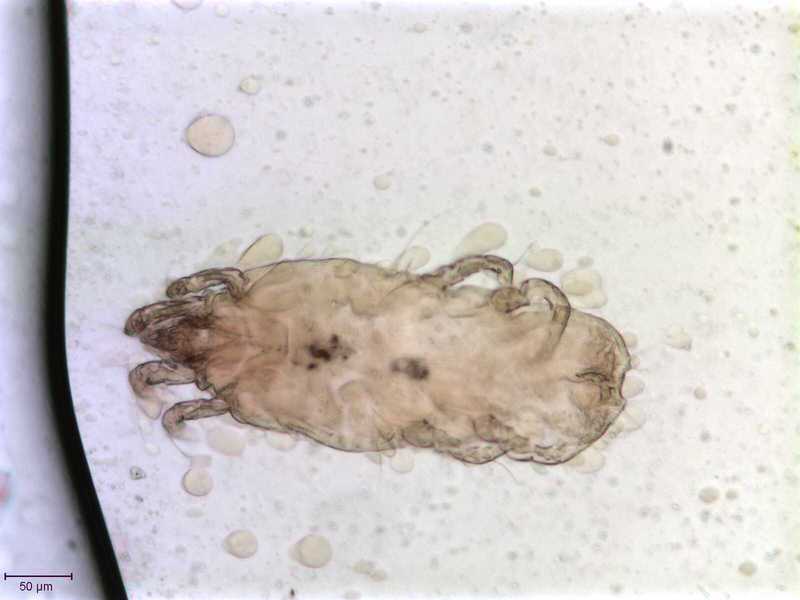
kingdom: Animalia
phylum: Arthropoda
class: Arachnida
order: Sarcoptiformes
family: Proctophyllodidae
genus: Proctophyllodes
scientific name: Proctophyllodes corvorum
